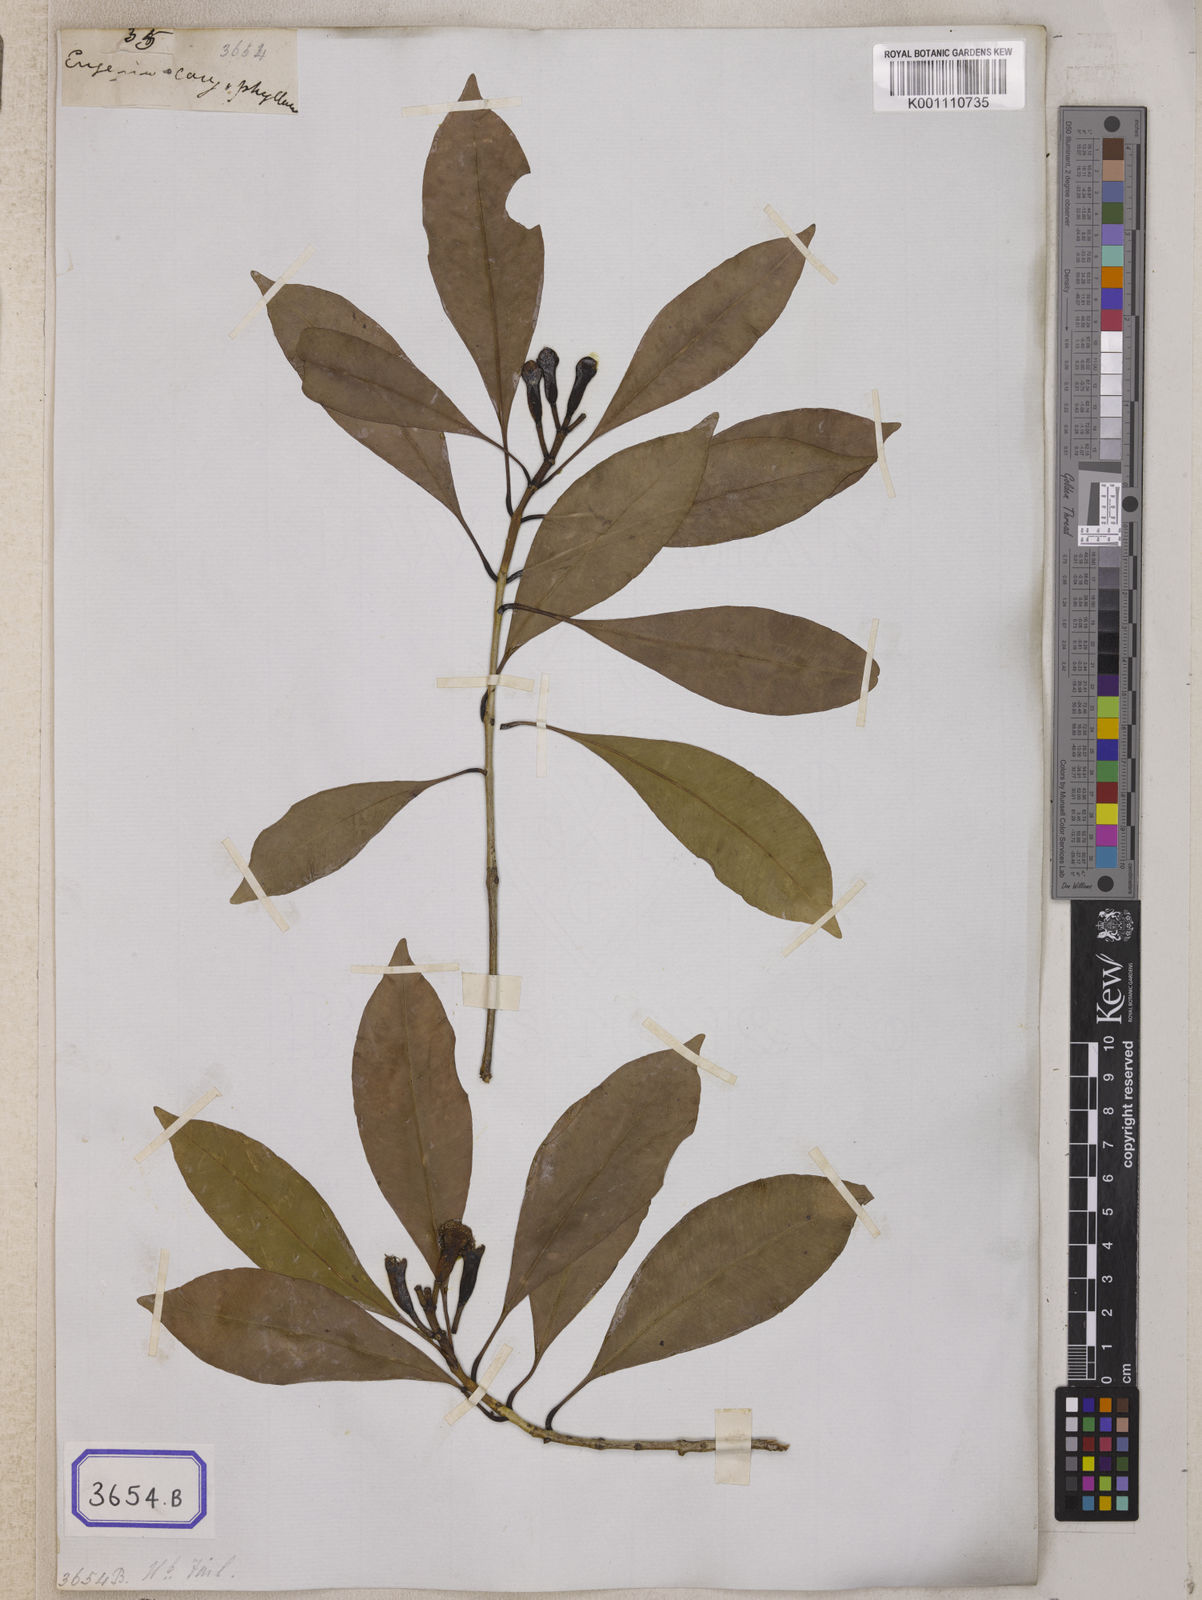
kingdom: Plantae
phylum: Tracheophyta
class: Magnoliopsida
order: Myrtales
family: Myrtaceae
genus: Syzygium
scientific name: Syzygium aromaticum
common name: Clove
